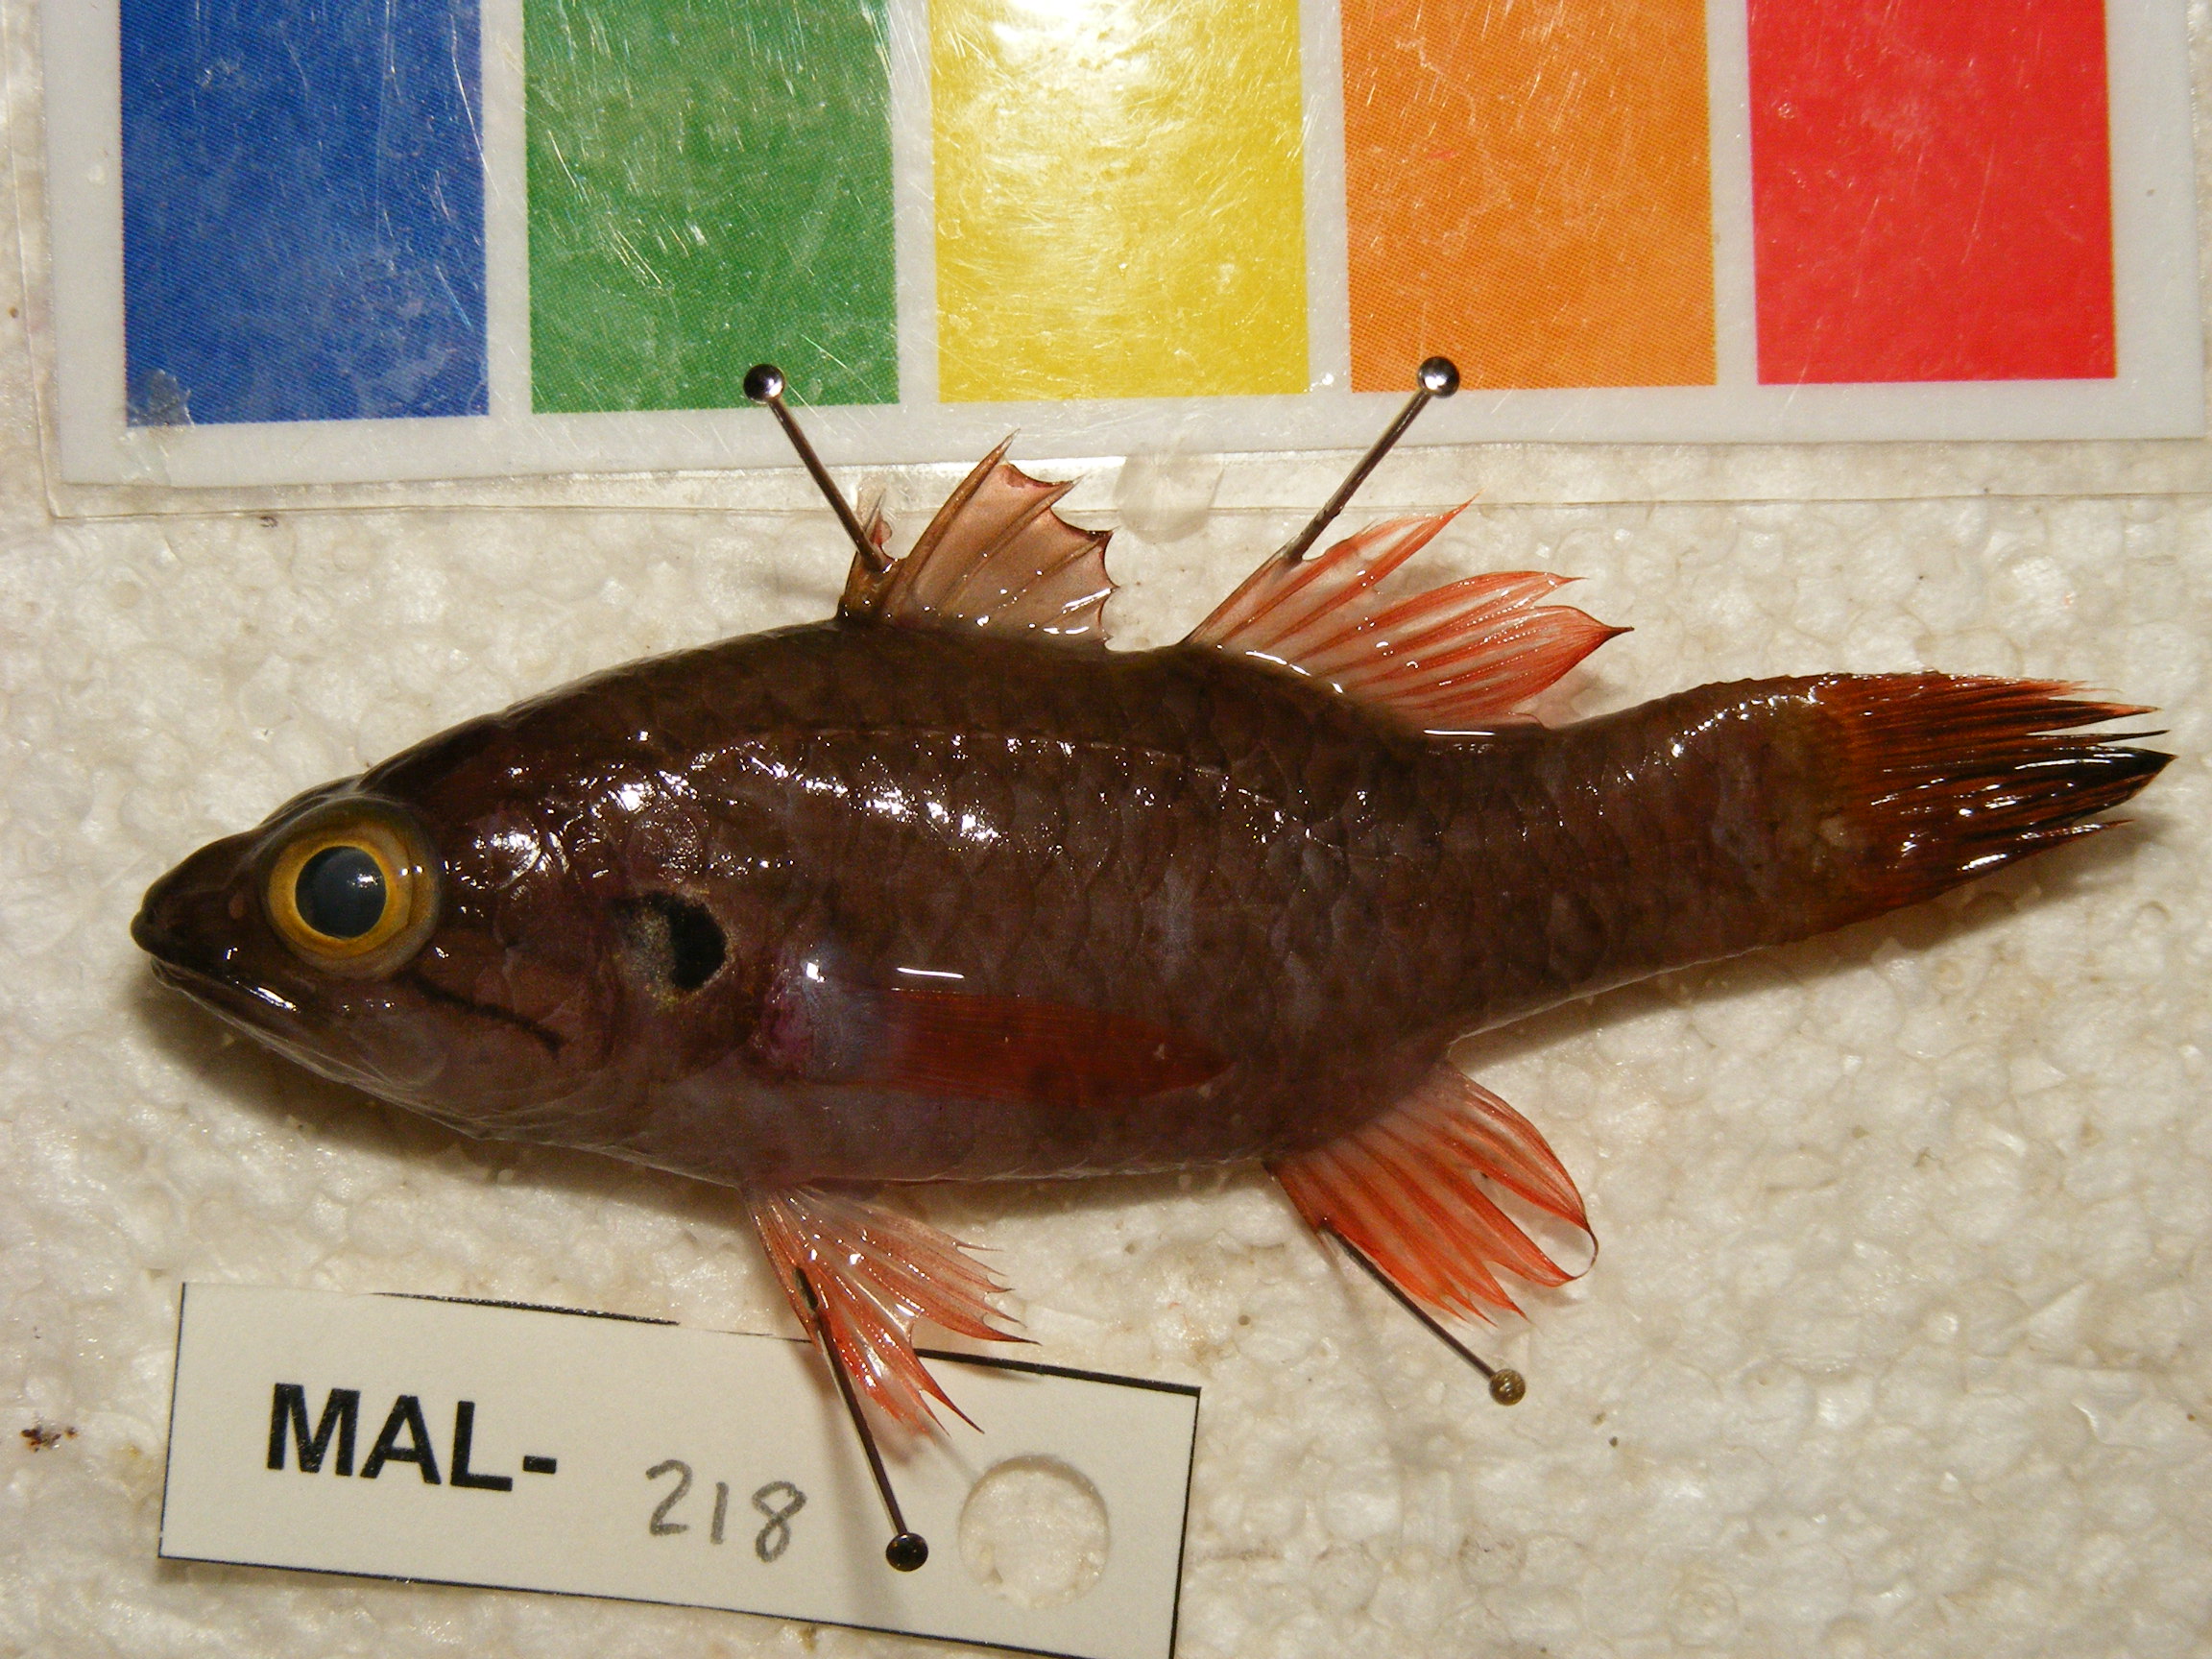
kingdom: Animalia
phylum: Chordata
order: Perciformes
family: Apogonidae
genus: Fowleria
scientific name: Fowleria aurita
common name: Crosseyed cardinalfish
